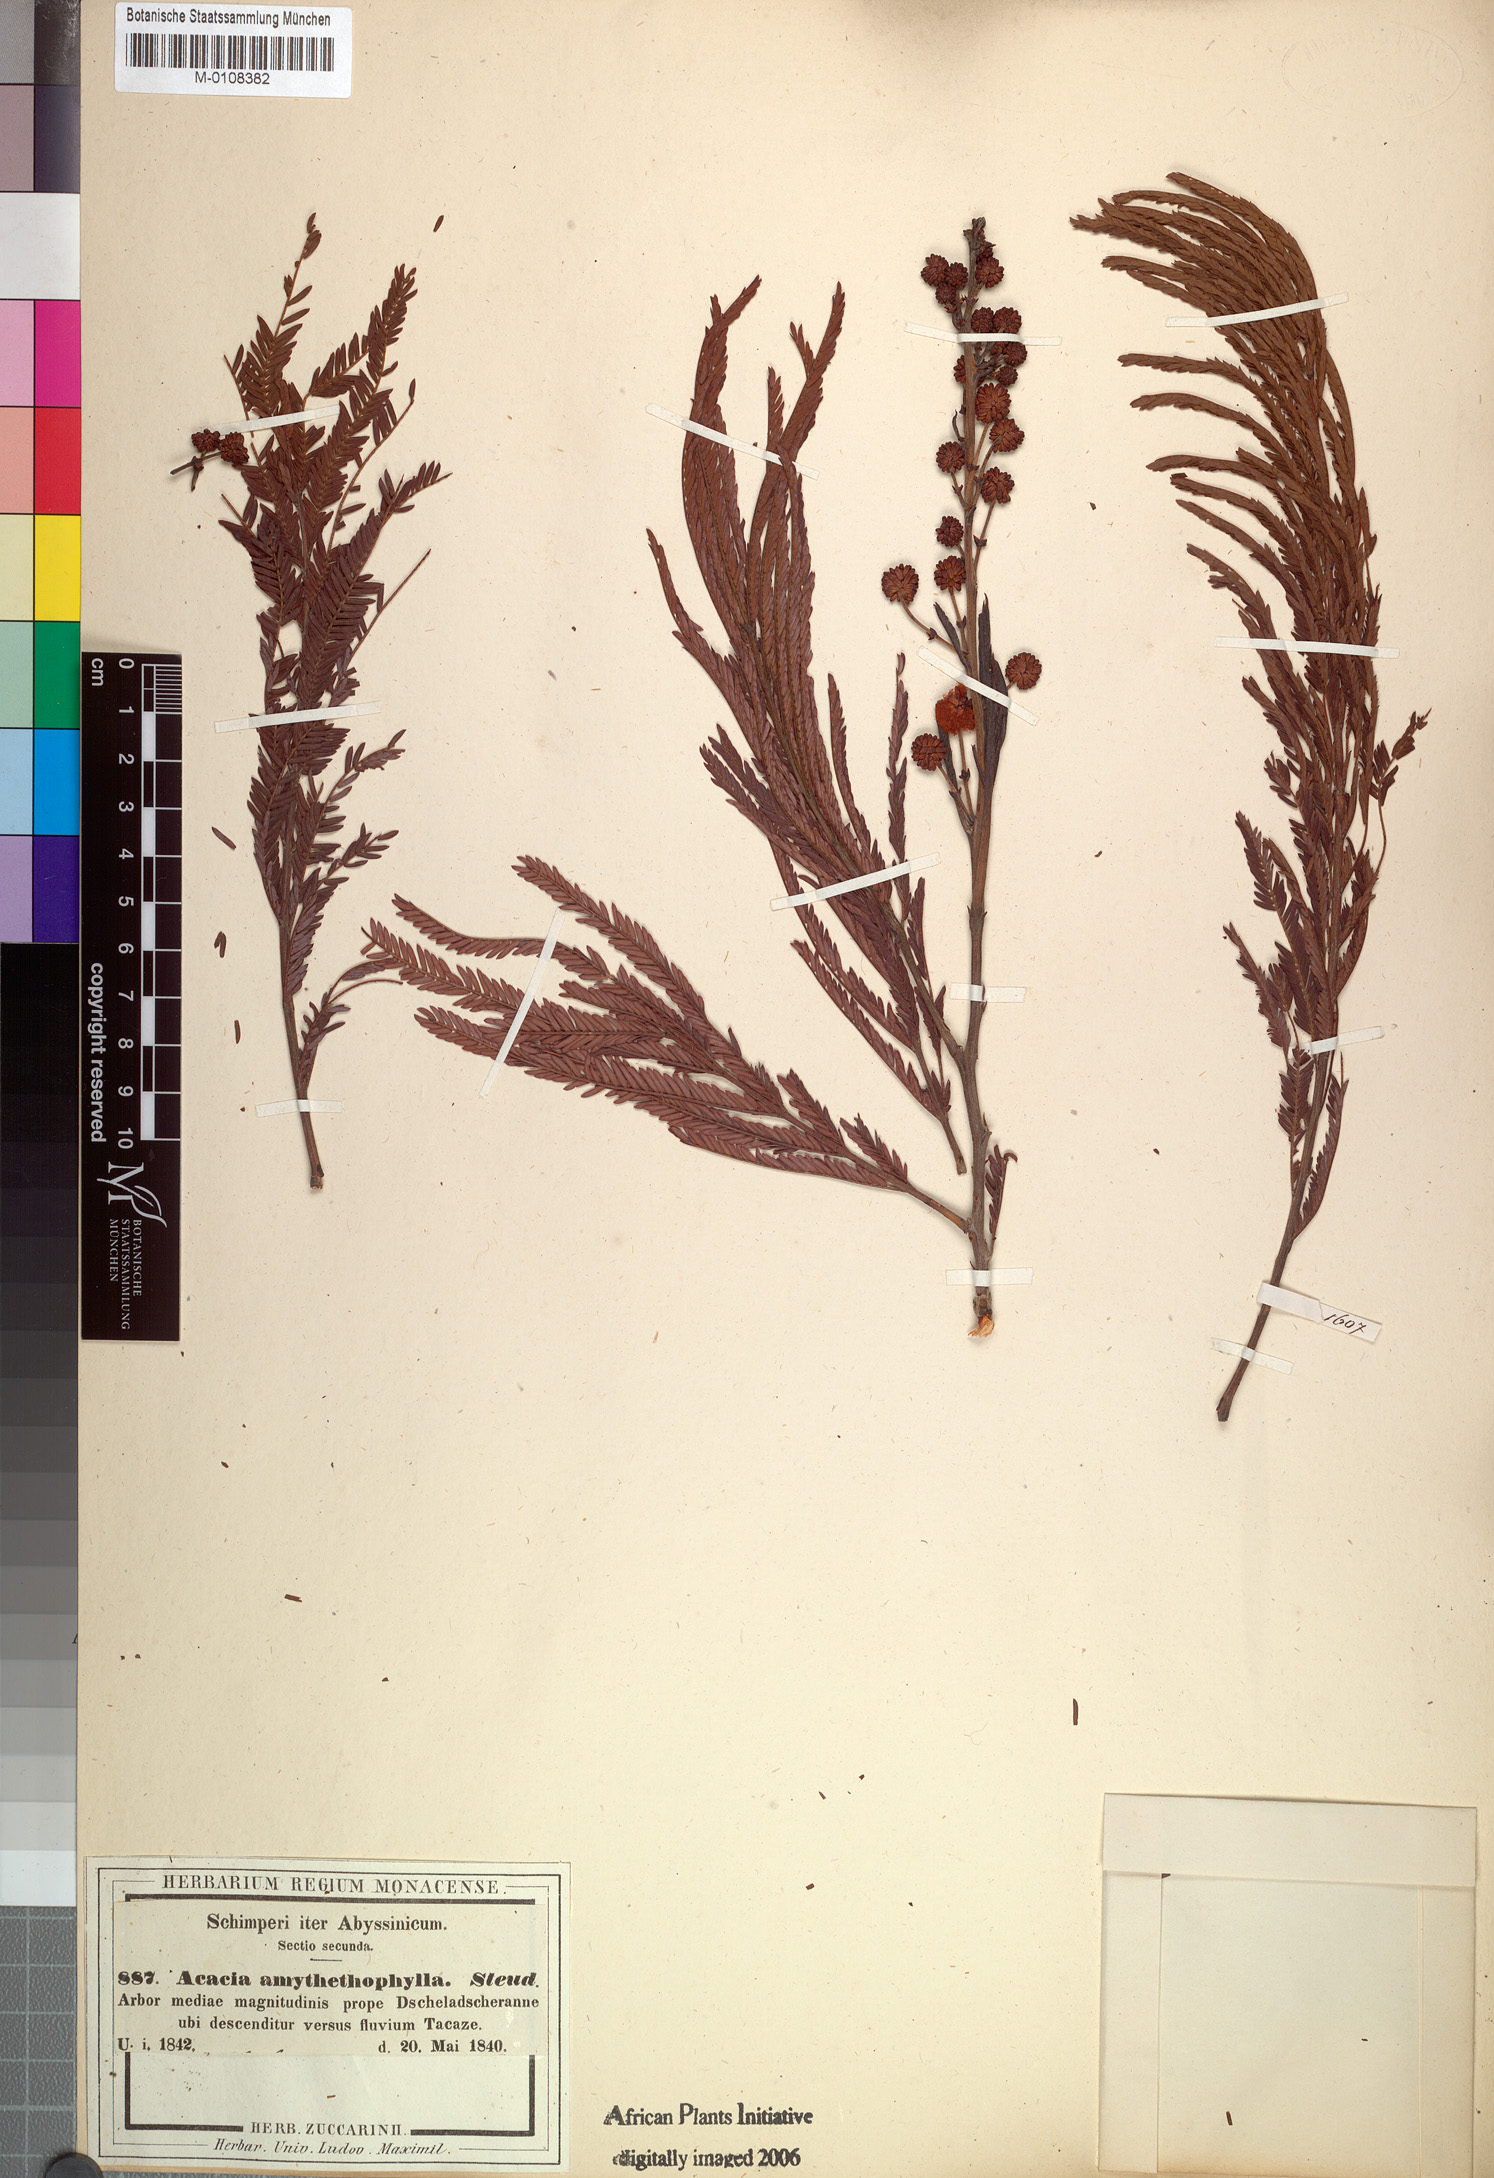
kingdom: Plantae
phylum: Tracheophyta
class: Magnoliopsida
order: Fabales
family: Fabaceae
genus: Vachellia
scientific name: Vachellia amythethophylla
